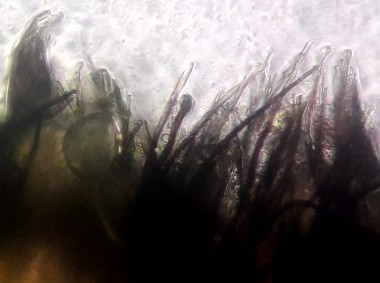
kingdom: Fungi
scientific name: Fungi
